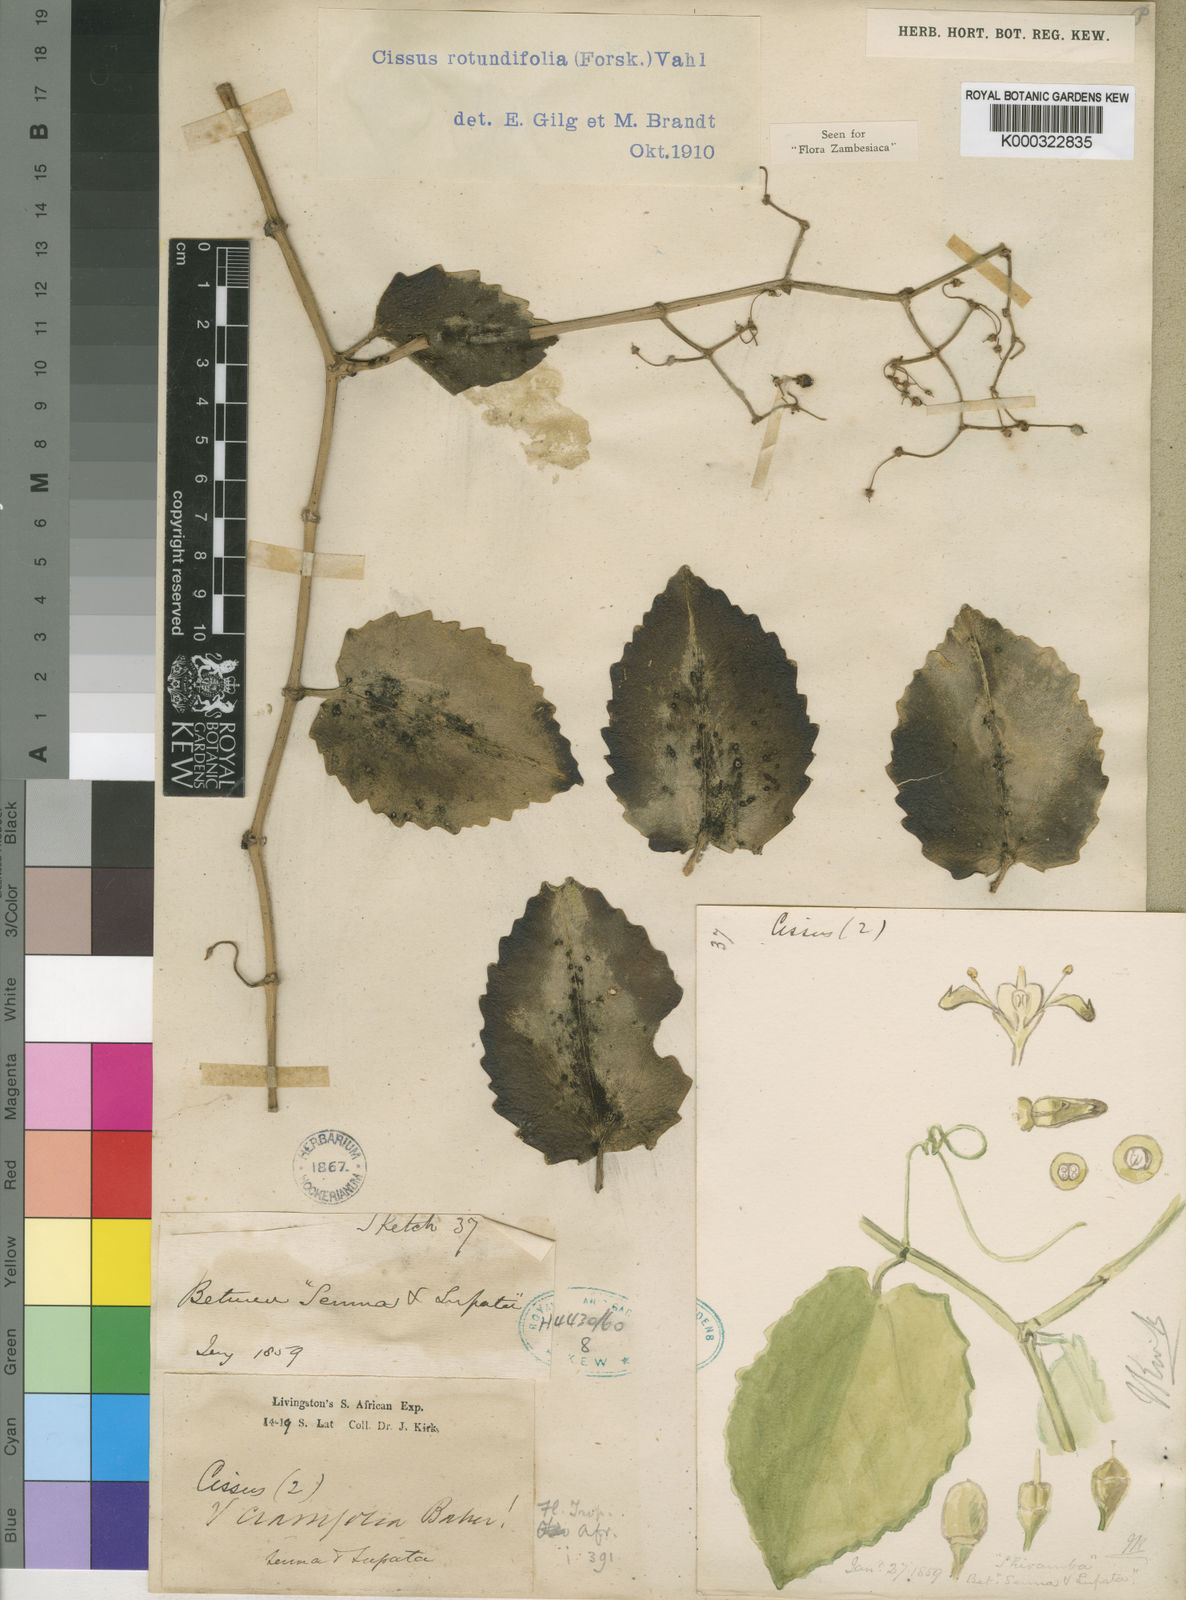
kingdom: Plantae
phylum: Tracheophyta
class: Magnoliopsida
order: Vitales
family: Vitaceae
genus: Cissus
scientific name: Cissus rotundifolia
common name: Arabian wax cissus
